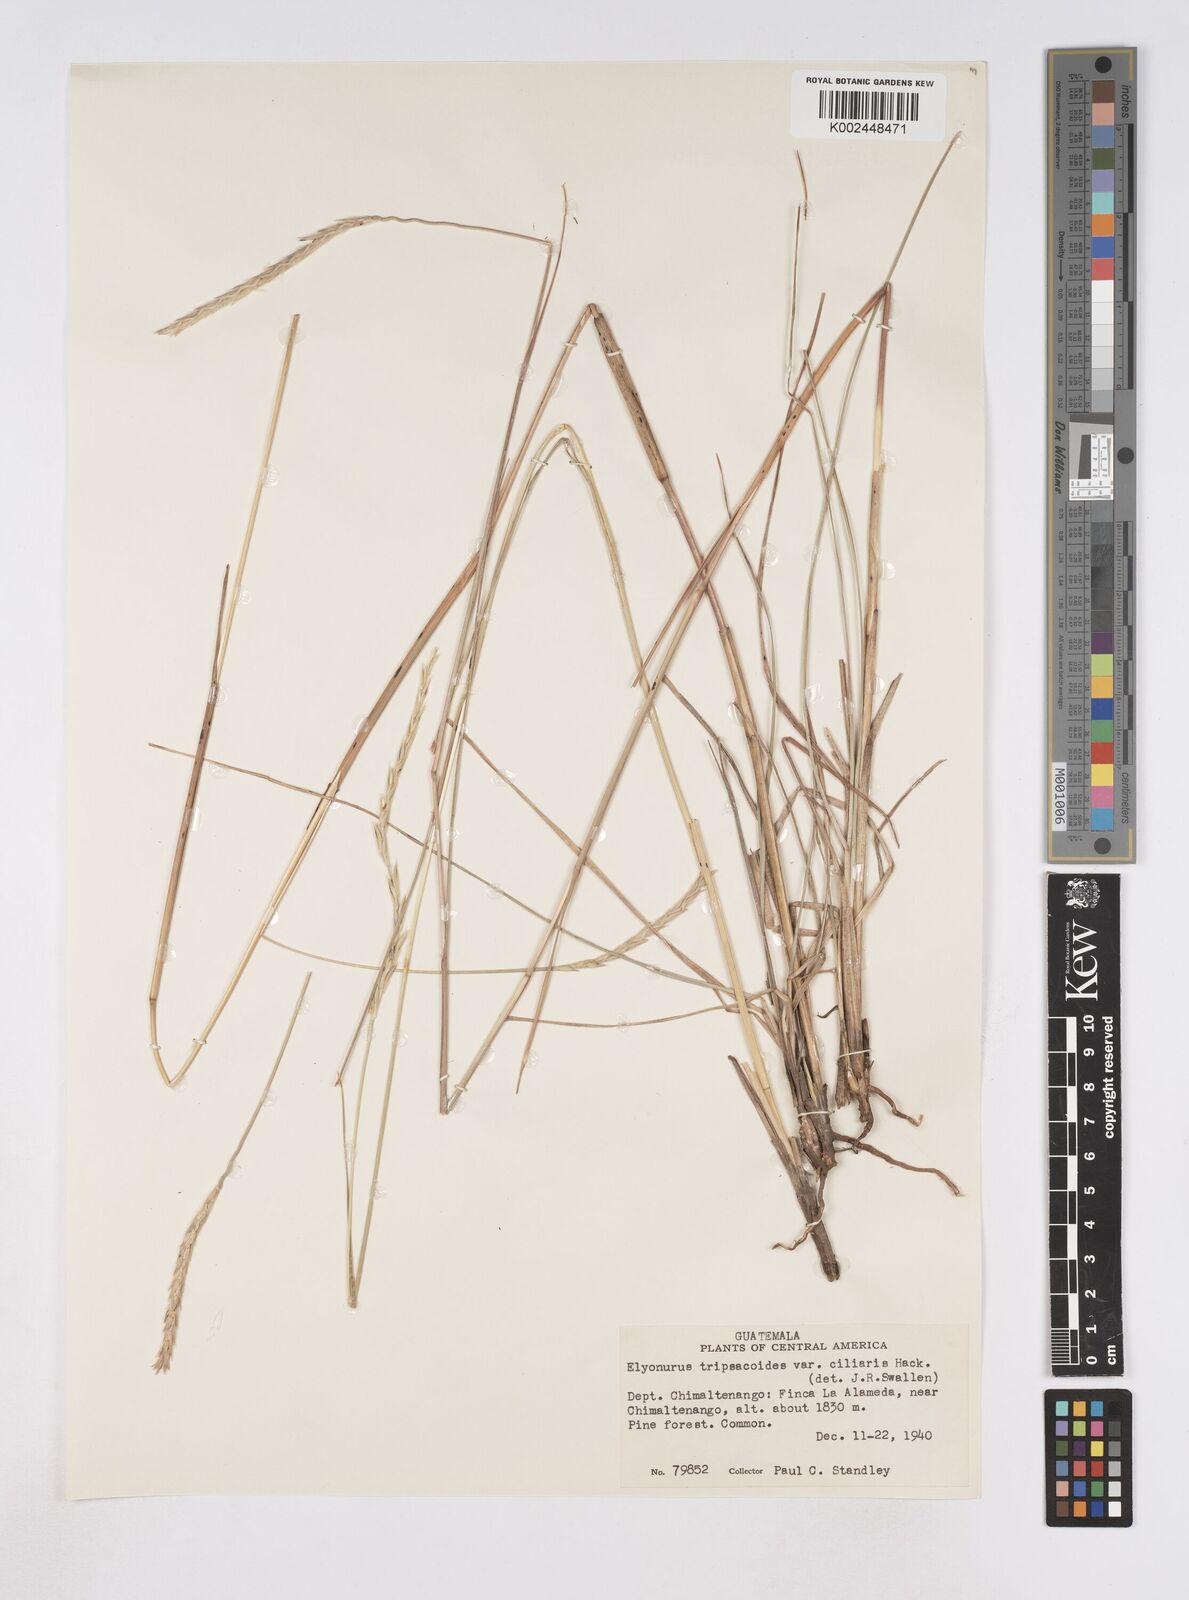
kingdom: Plantae
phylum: Tracheophyta
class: Liliopsida
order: Poales
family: Poaceae
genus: Elionurus
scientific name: Elionurus
